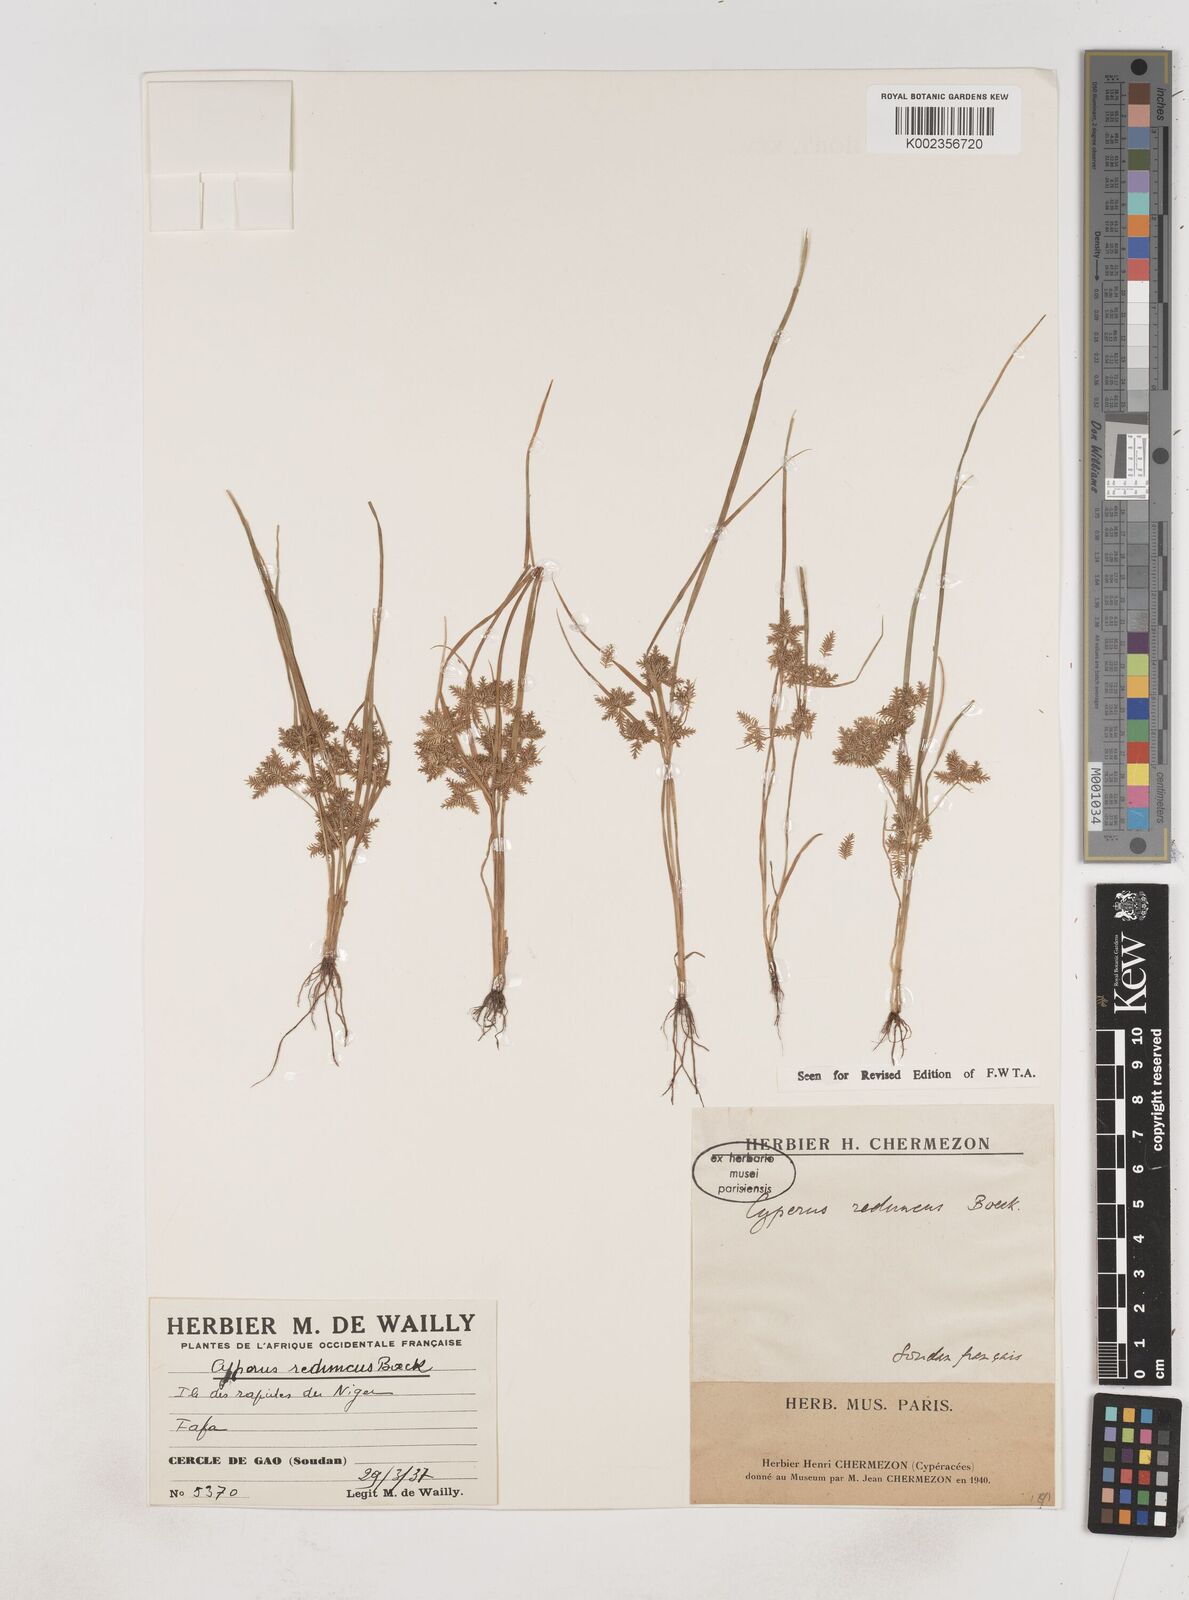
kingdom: Plantae
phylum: Tracheophyta
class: Liliopsida
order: Poales
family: Cyperaceae
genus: Cyperus
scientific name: Cyperus reduncus
